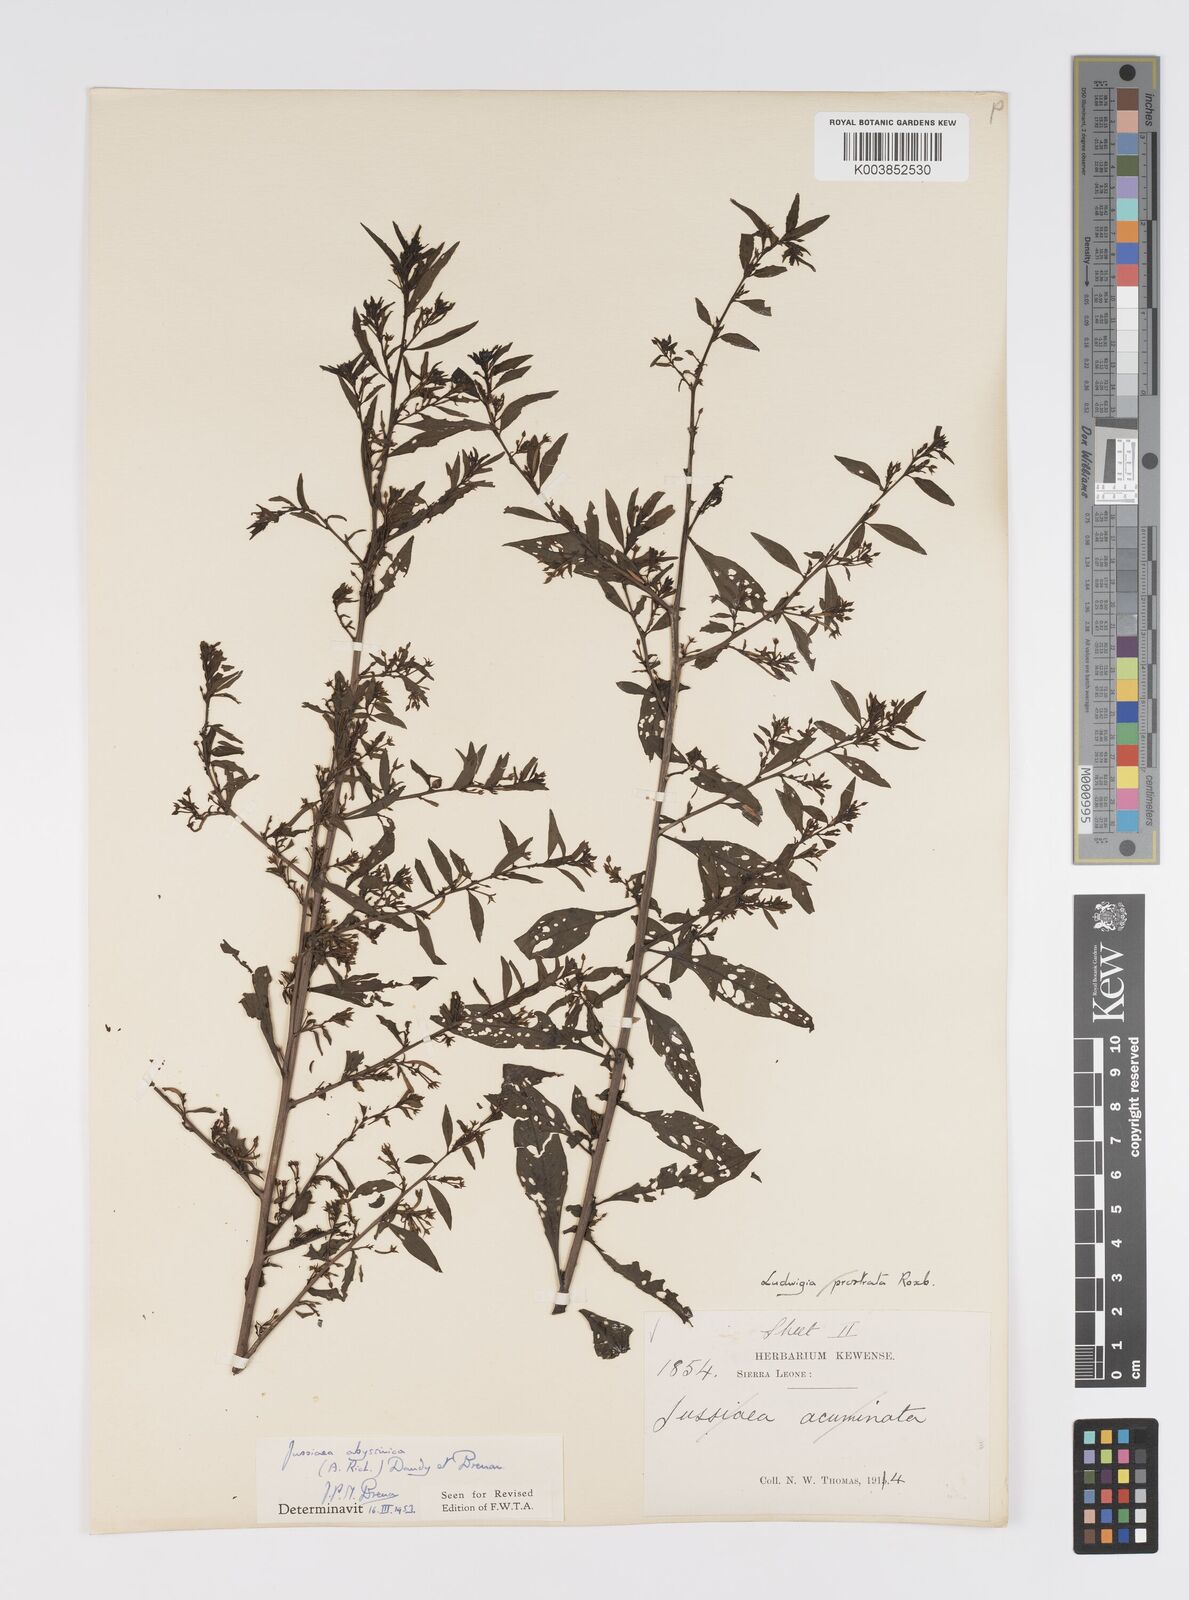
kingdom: Plantae
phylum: Tracheophyta
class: Magnoliopsida
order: Myrtales
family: Onagraceae
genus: Ludwigia
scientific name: Ludwigia abyssinica
